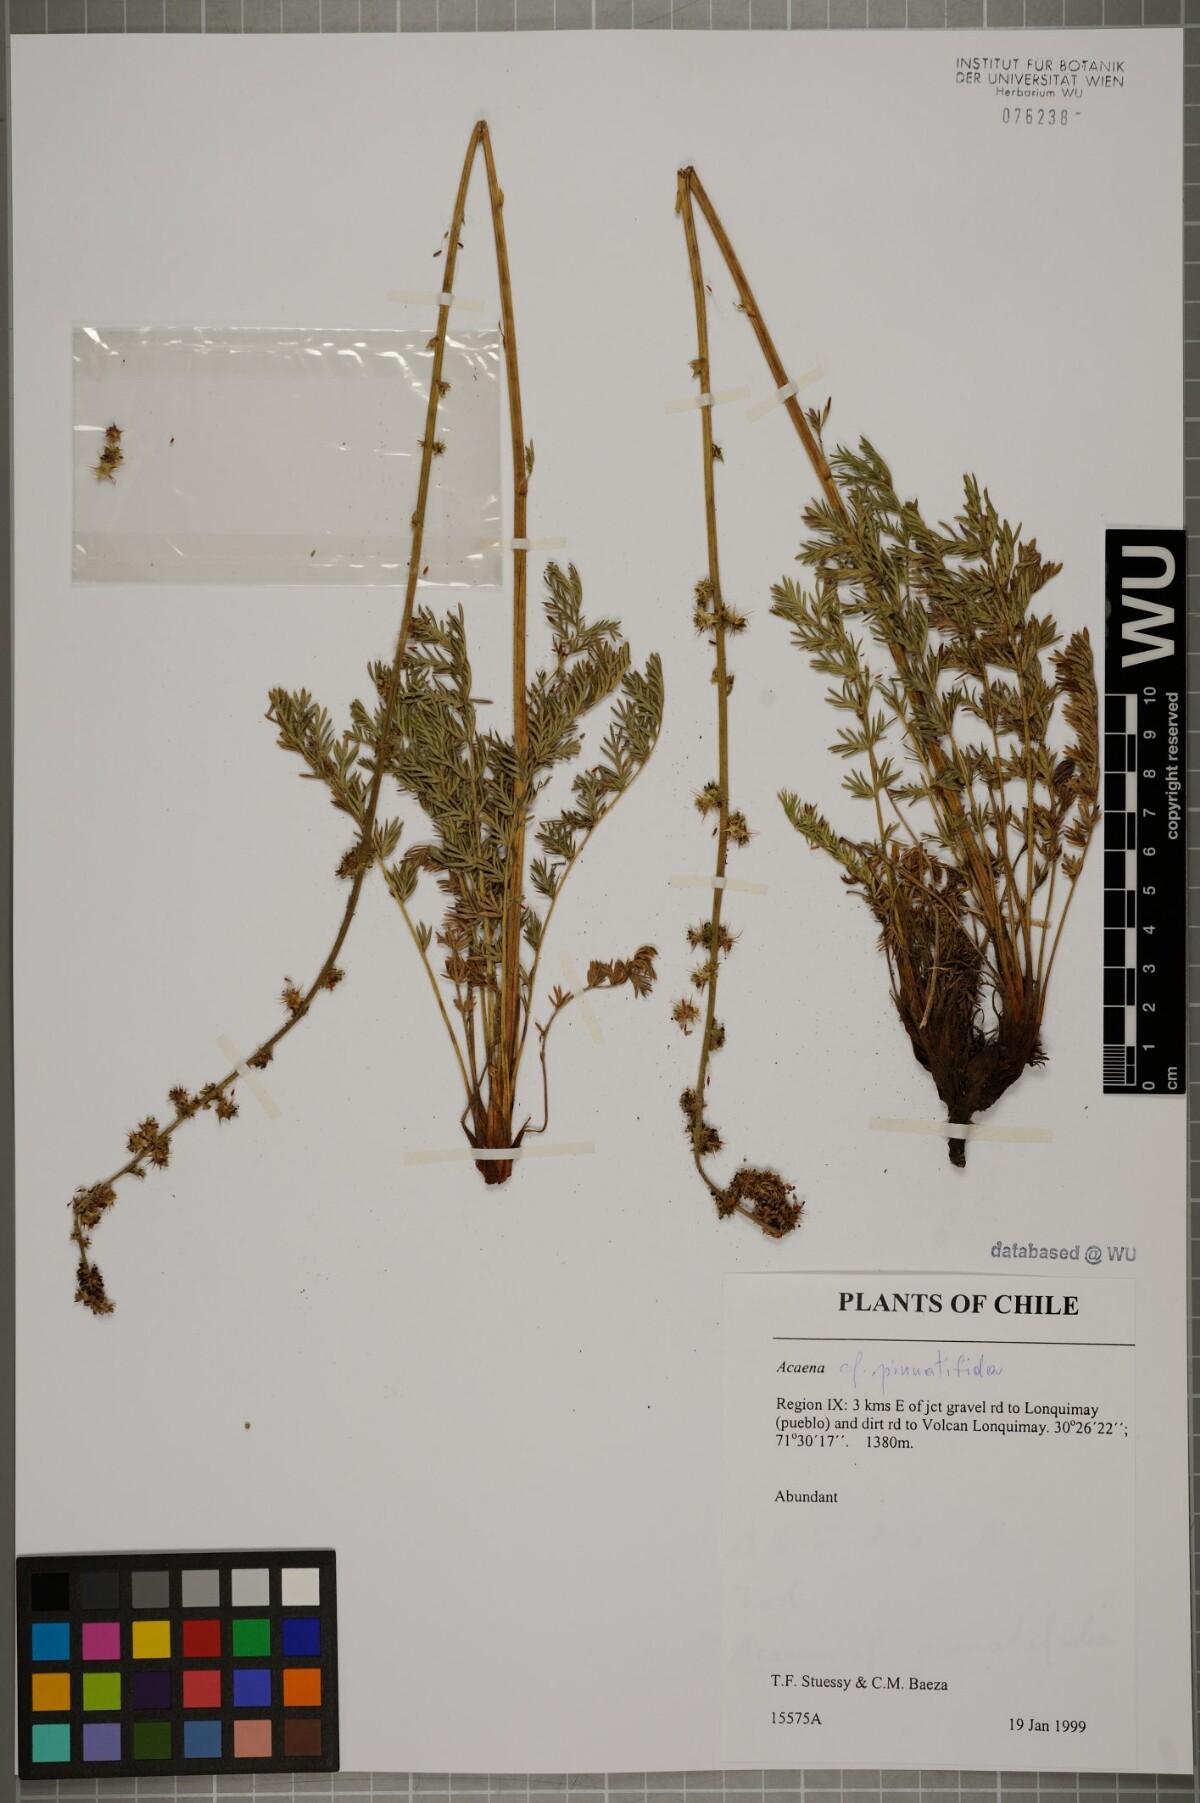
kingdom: Plantae
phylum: Tracheophyta
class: Magnoliopsida
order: Rosales
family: Rosaceae
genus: Acaena
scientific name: Acaena pinnatifida
